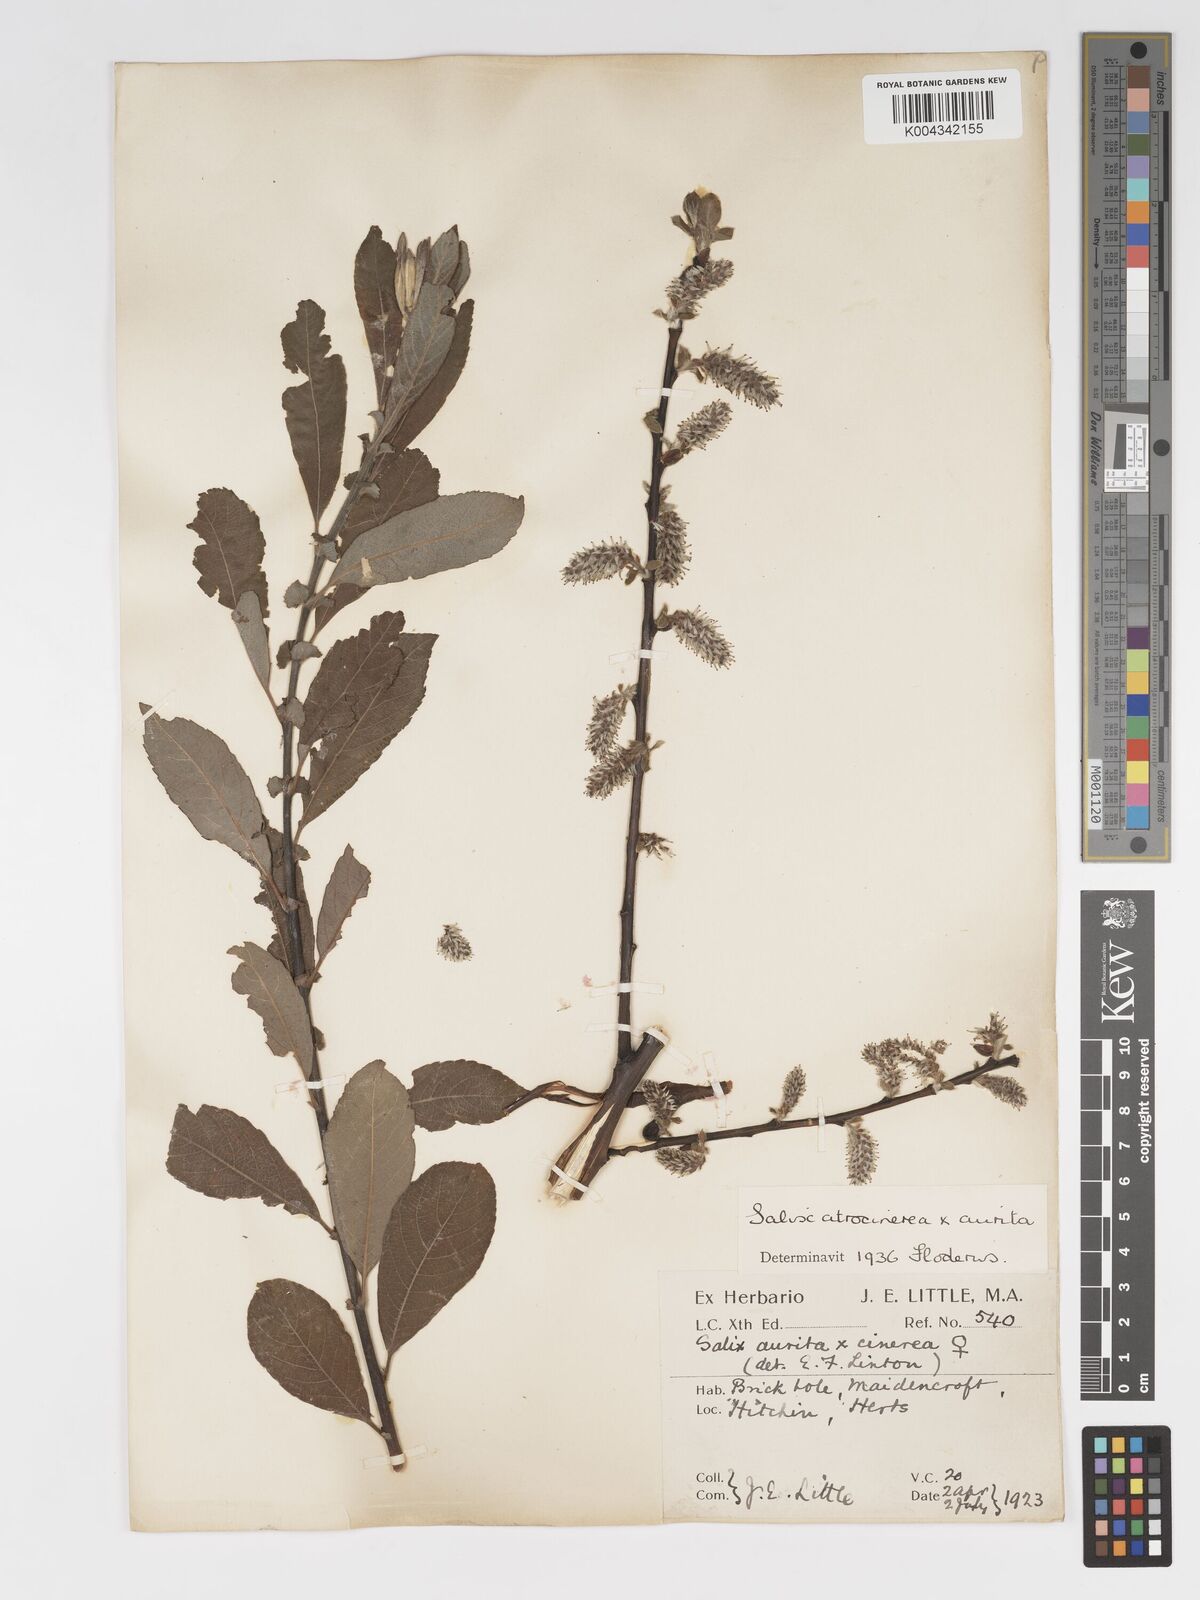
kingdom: Plantae
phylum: Tracheophyta
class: Magnoliopsida
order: Malpighiales
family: Salicaceae
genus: Salix
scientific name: Salix
